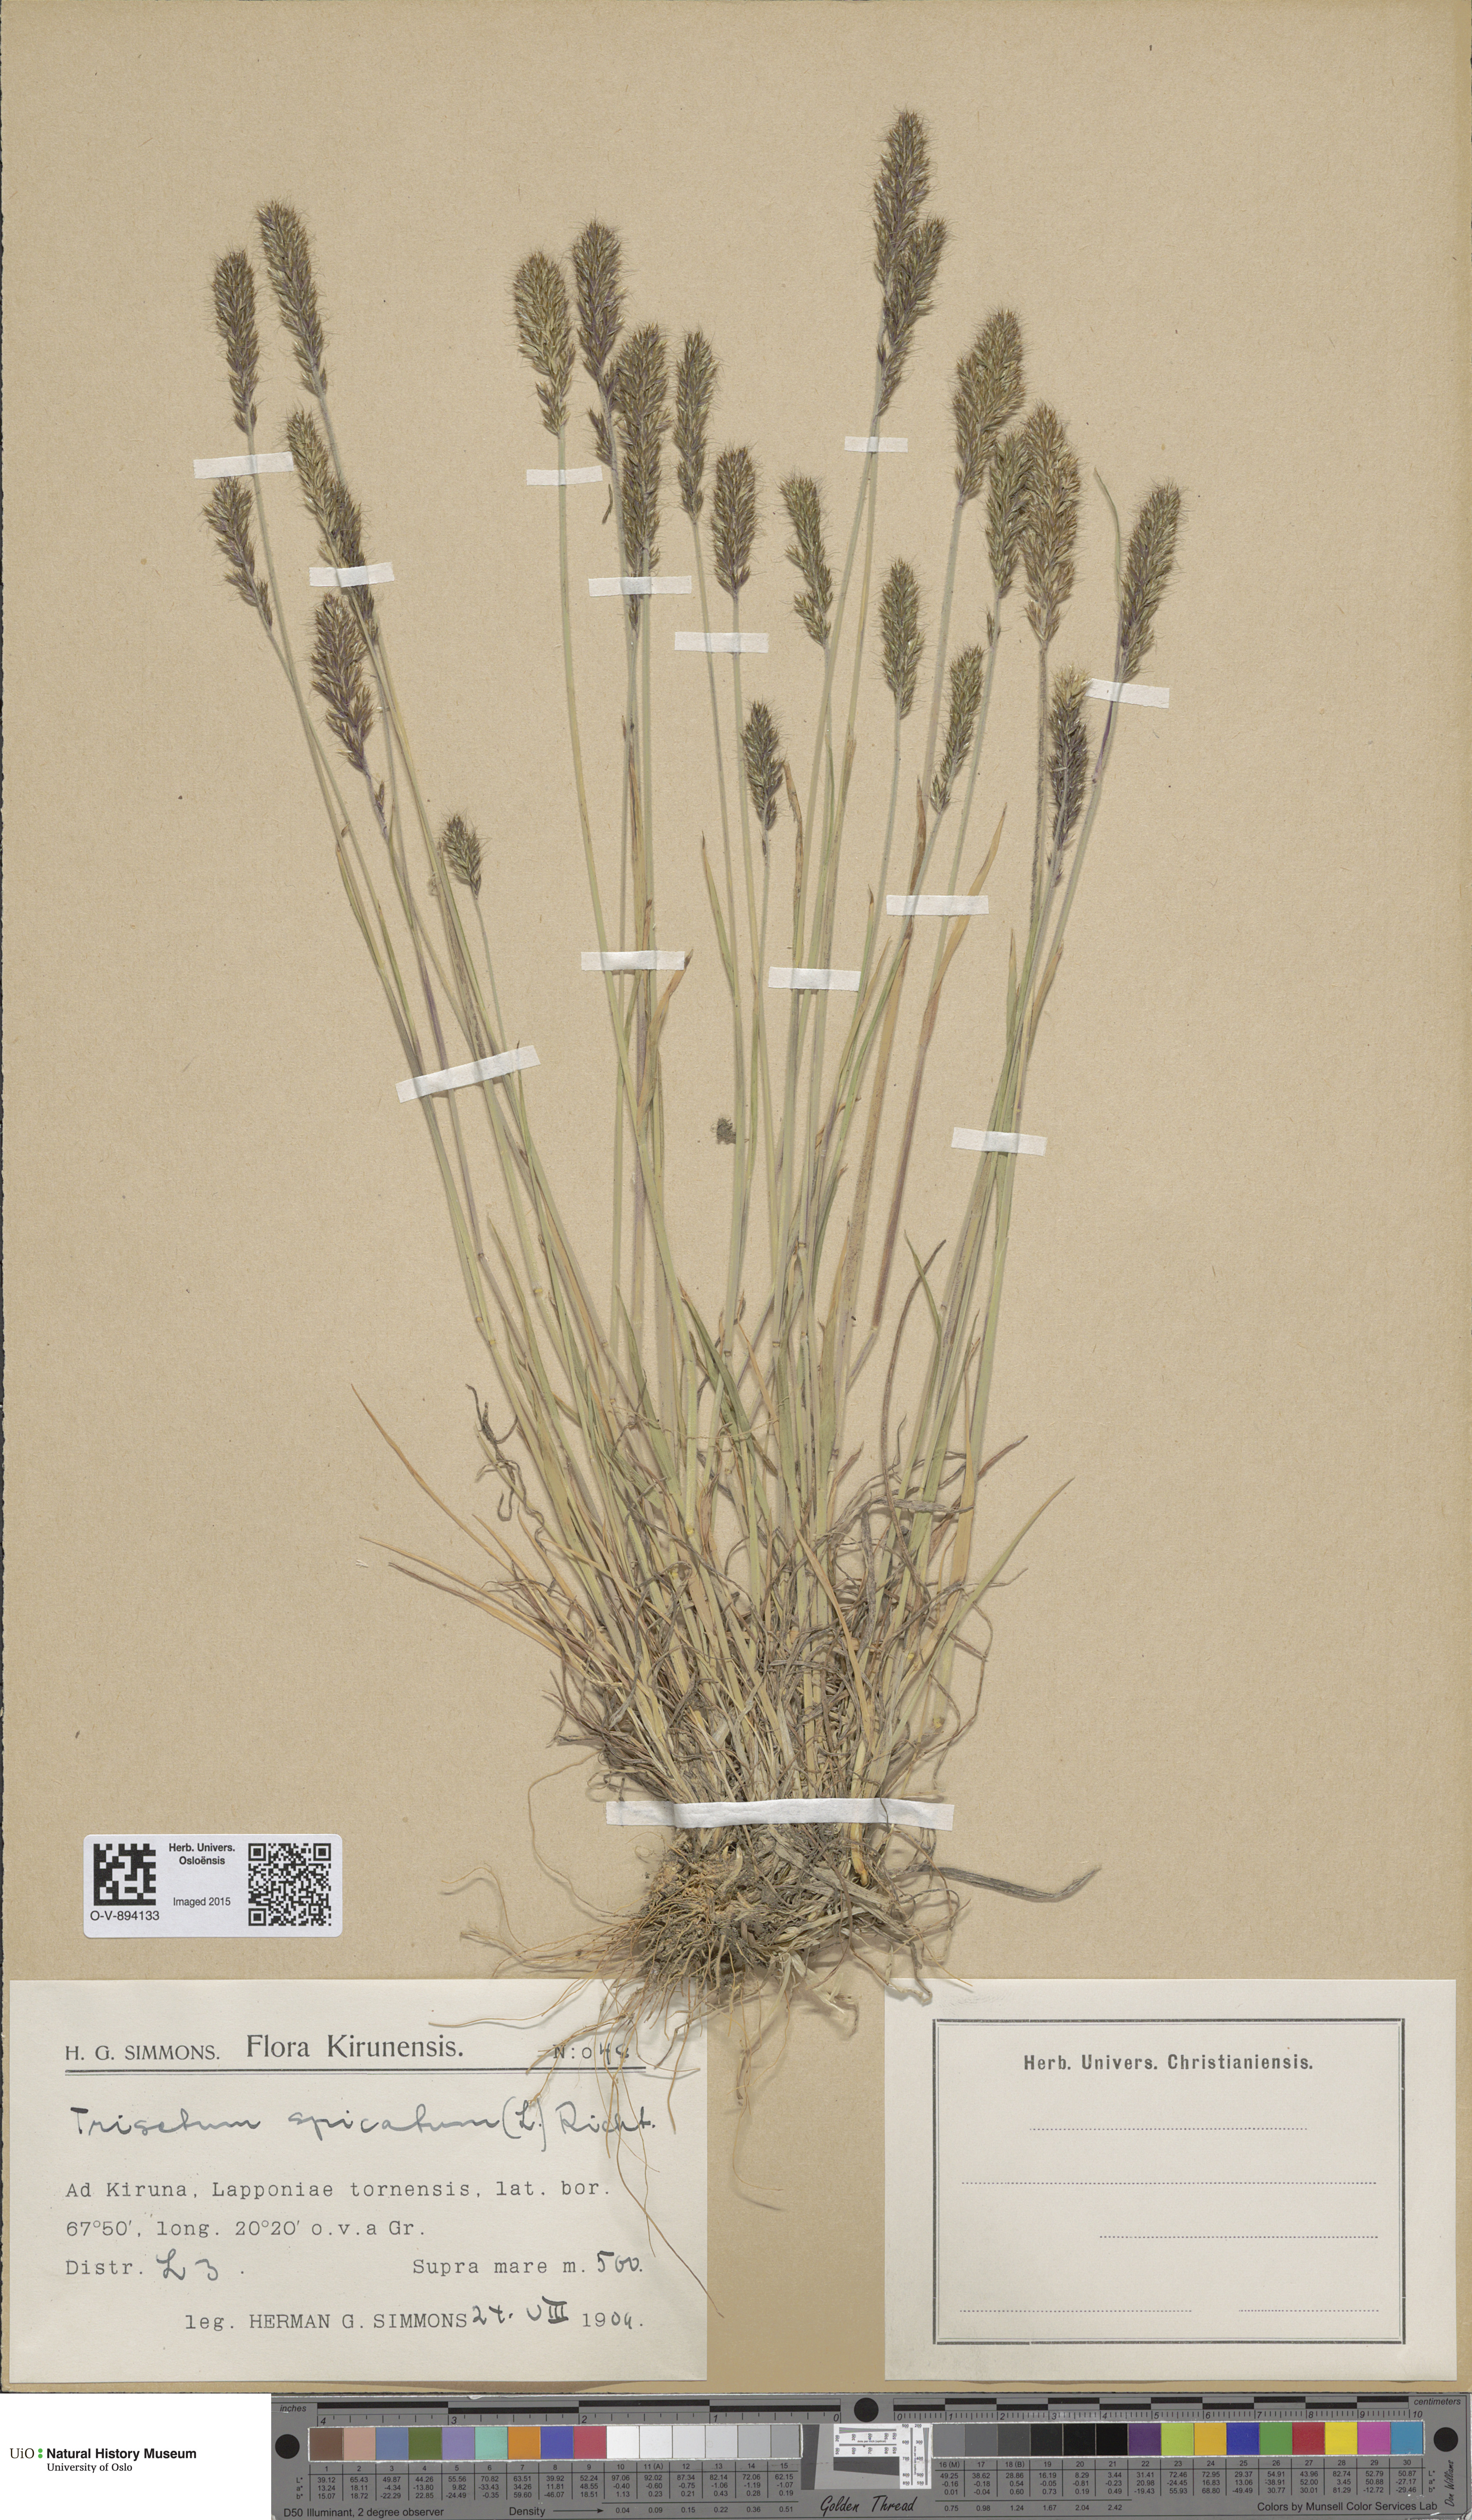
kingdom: Plantae
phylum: Tracheophyta
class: Liliopsida
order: Poales
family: Poaceae
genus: Koeleria
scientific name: Koeleria spicata
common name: Mountain trisetum
